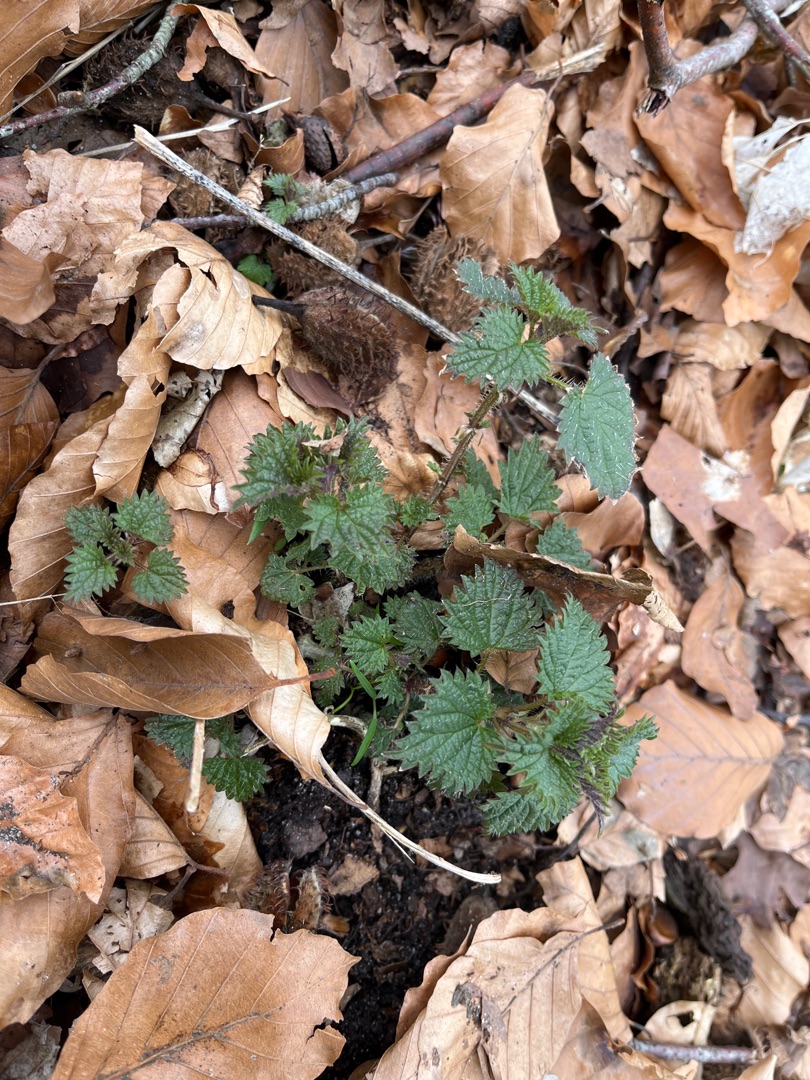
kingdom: Plantae
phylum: Tracheophyta
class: Magnoliopsida
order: Rosales
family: Urticaceae
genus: Urtica
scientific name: Urtica dioica
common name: Stor nælde
